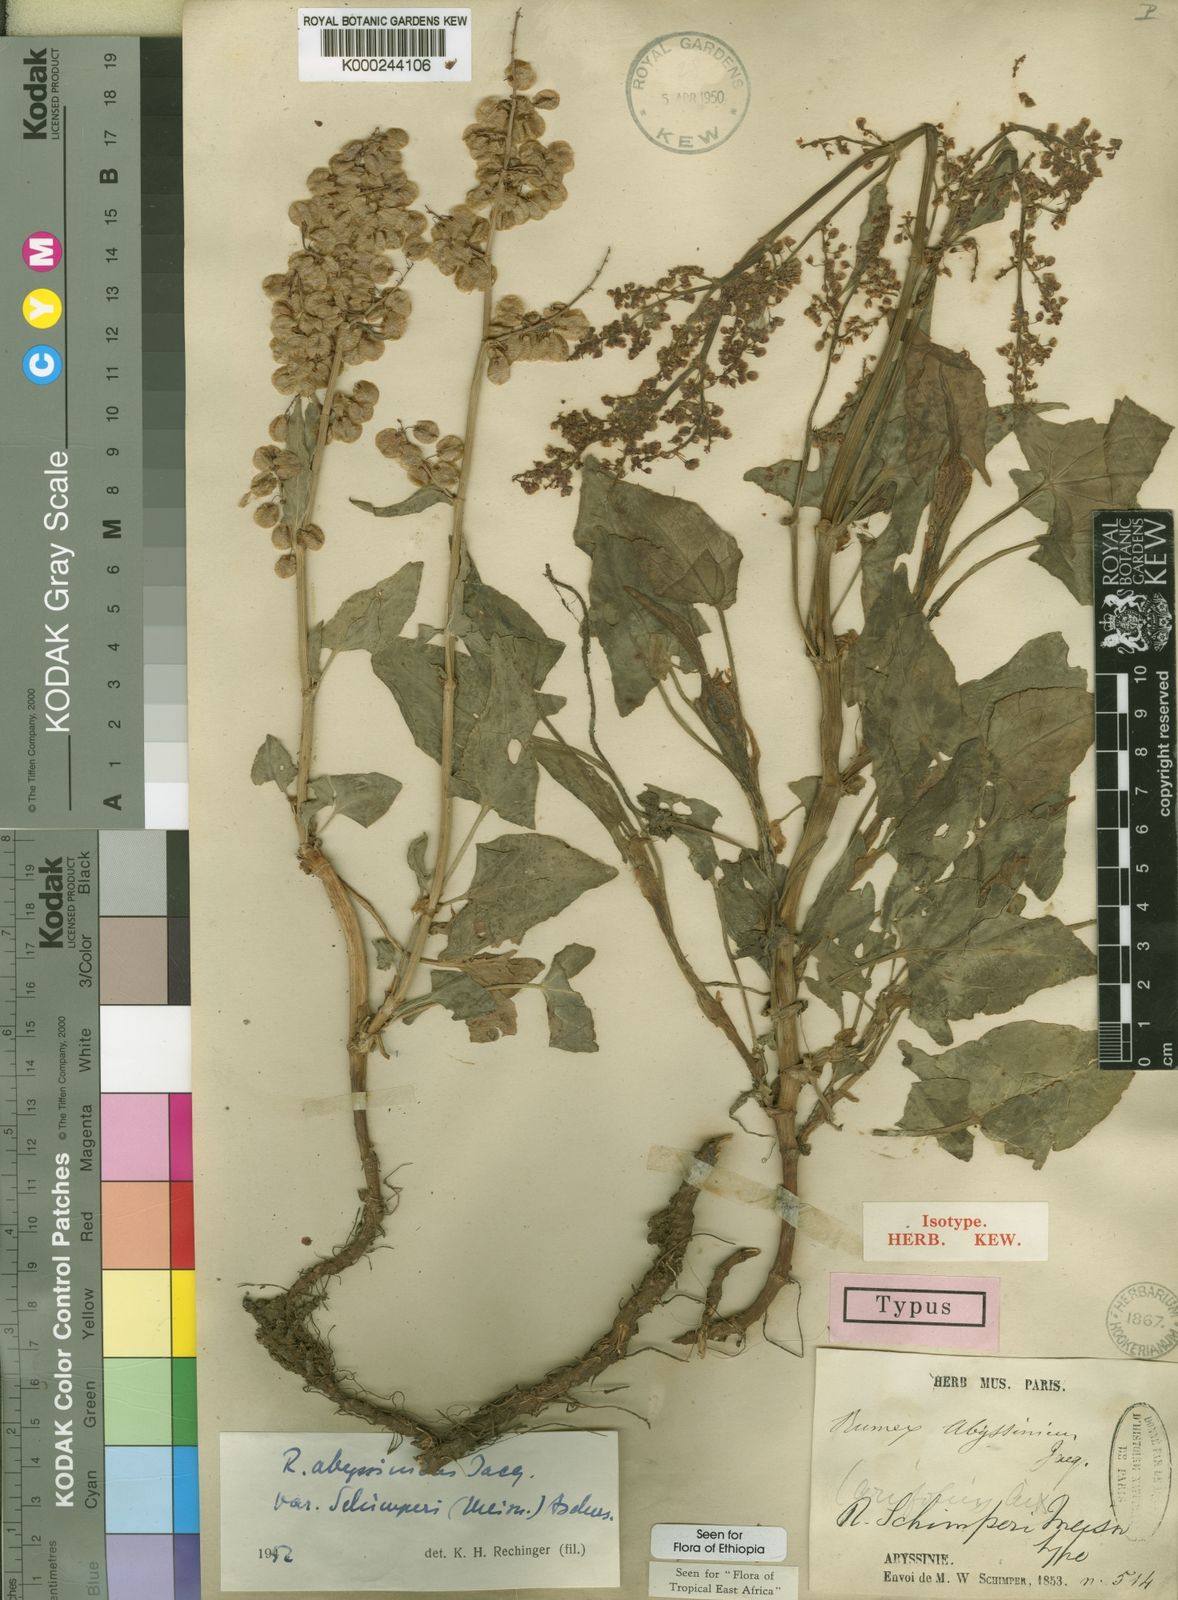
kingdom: Plantae
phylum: Tracheophyta
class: Magnoliopsida
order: Caryophyllales
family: Polygonaceae
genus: Rumex
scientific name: Rumex abyssinicus
